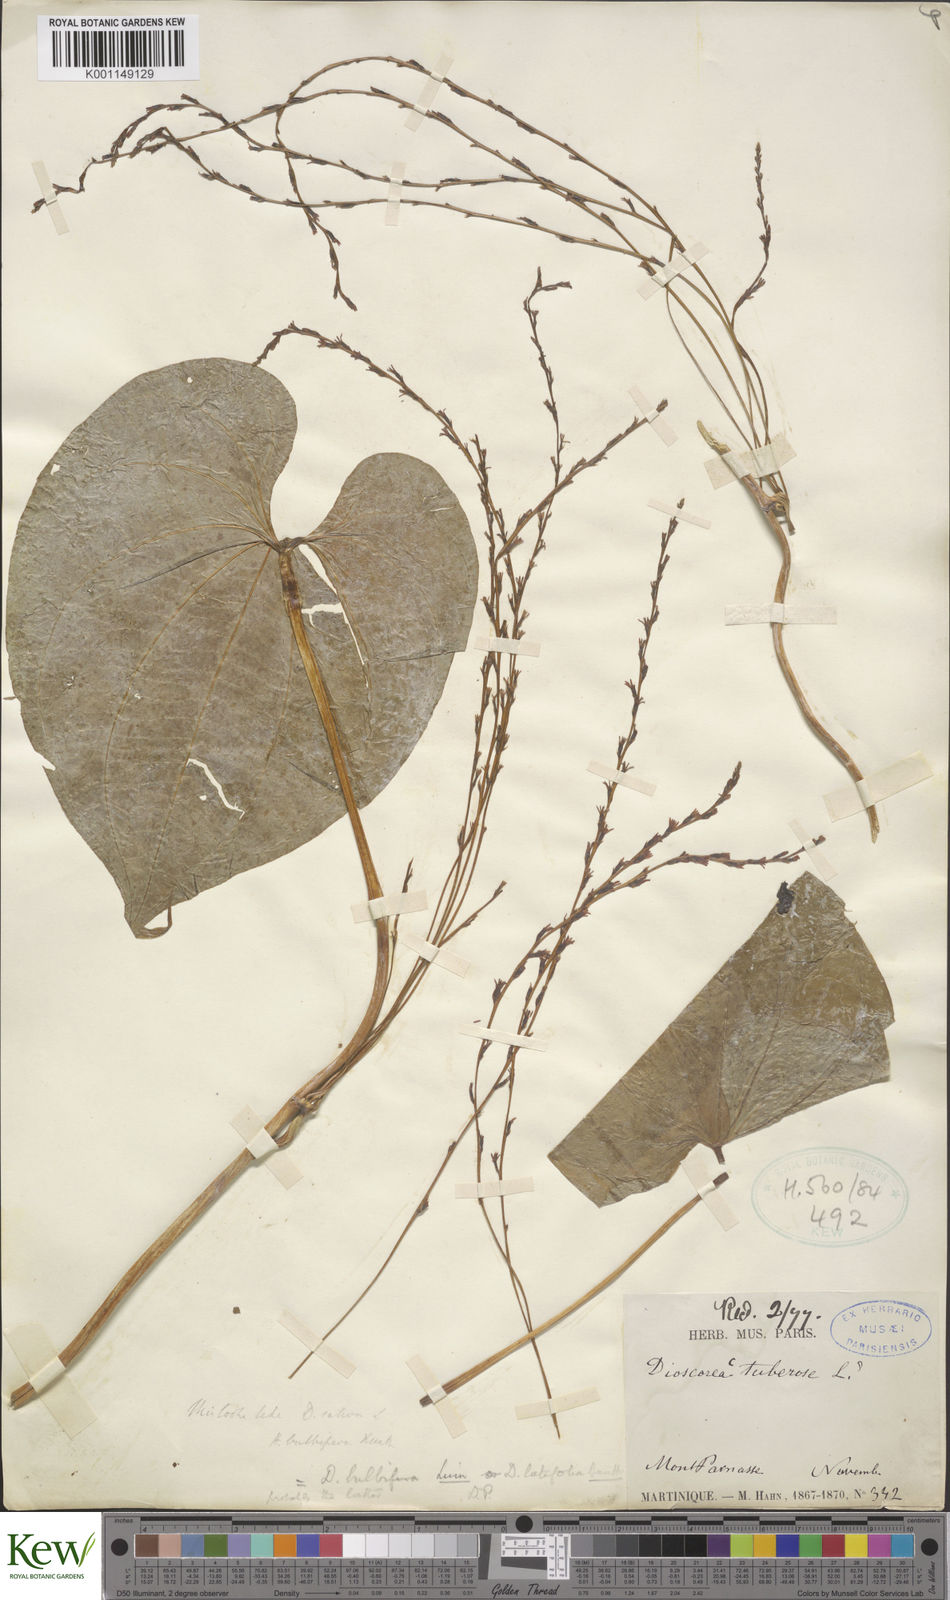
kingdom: Plantae
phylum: Tracheophyta
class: Liliopsida
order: Dioscoreales
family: Dioscoreaceae
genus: Dioscorea
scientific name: Dioscorea bulbifera
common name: Air yam
